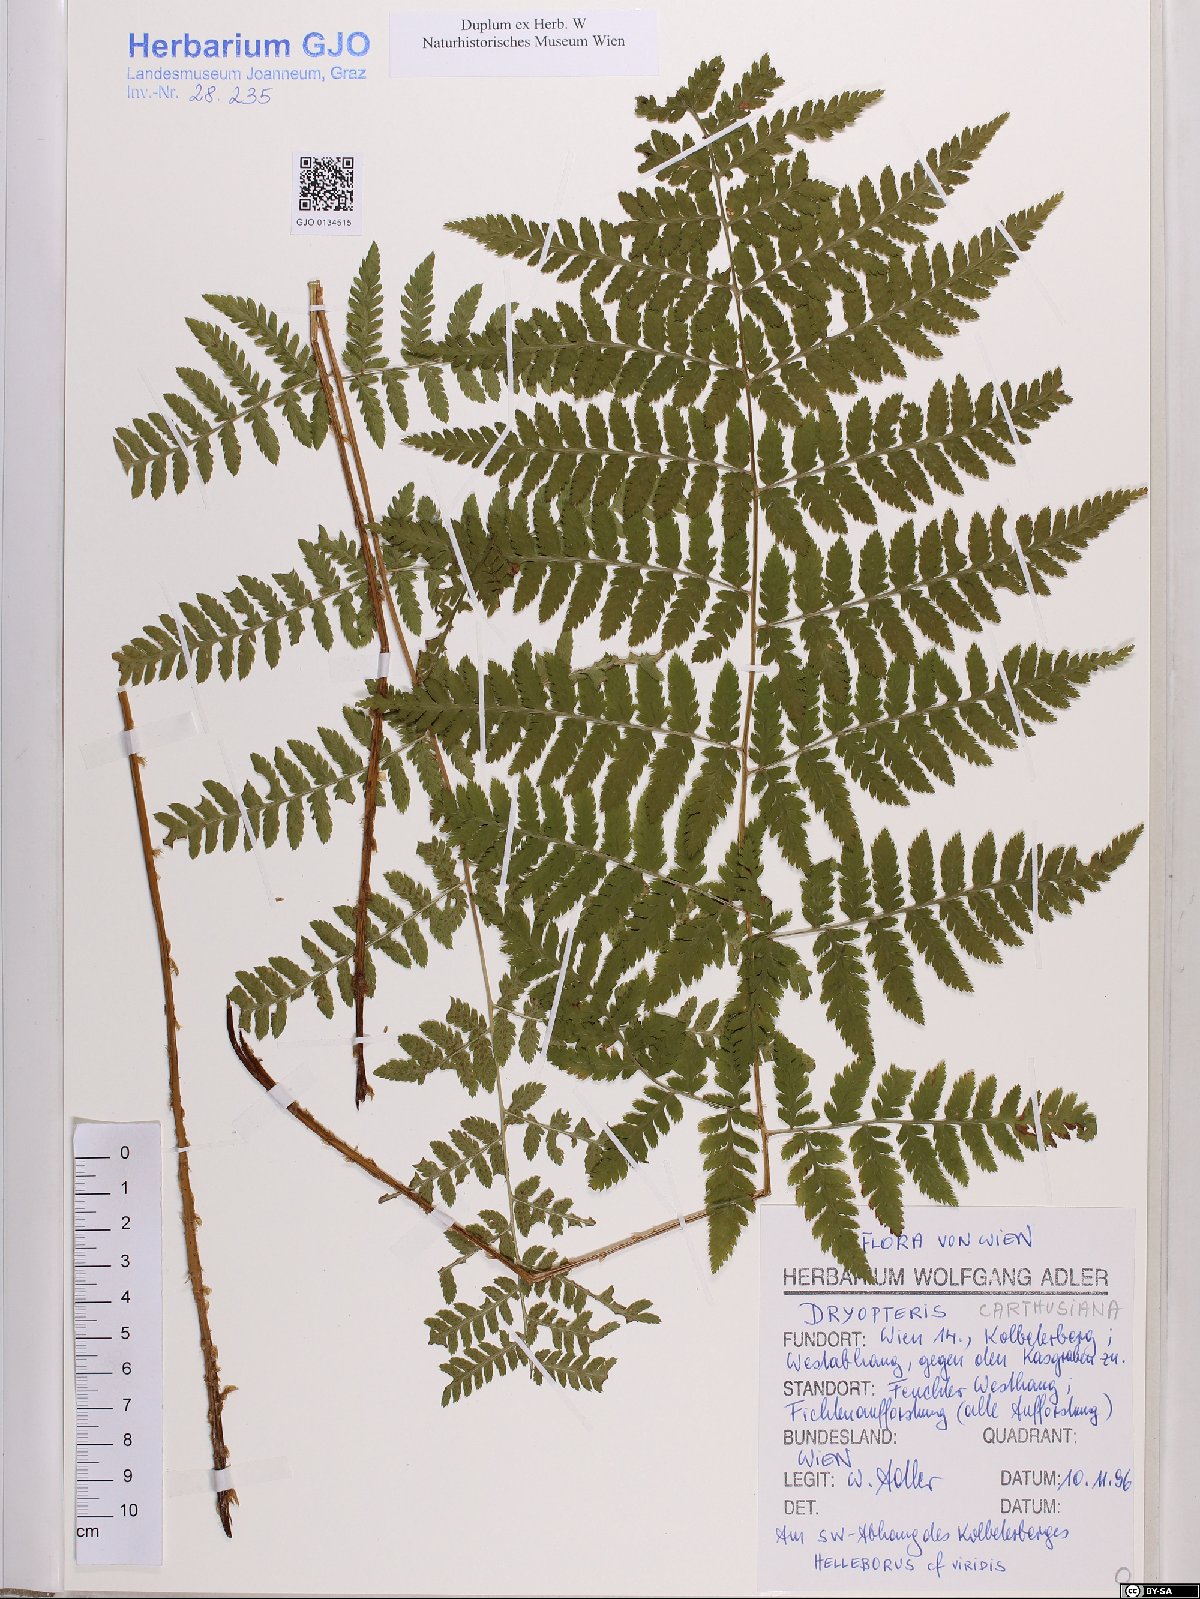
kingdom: Plantae
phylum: Tracheophyta
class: Polypodiopsida
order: Polypodiales
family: Dryopteridaceae
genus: Dryopteris
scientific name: Dryopteris carthusiana
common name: Narrow buckler-fern
